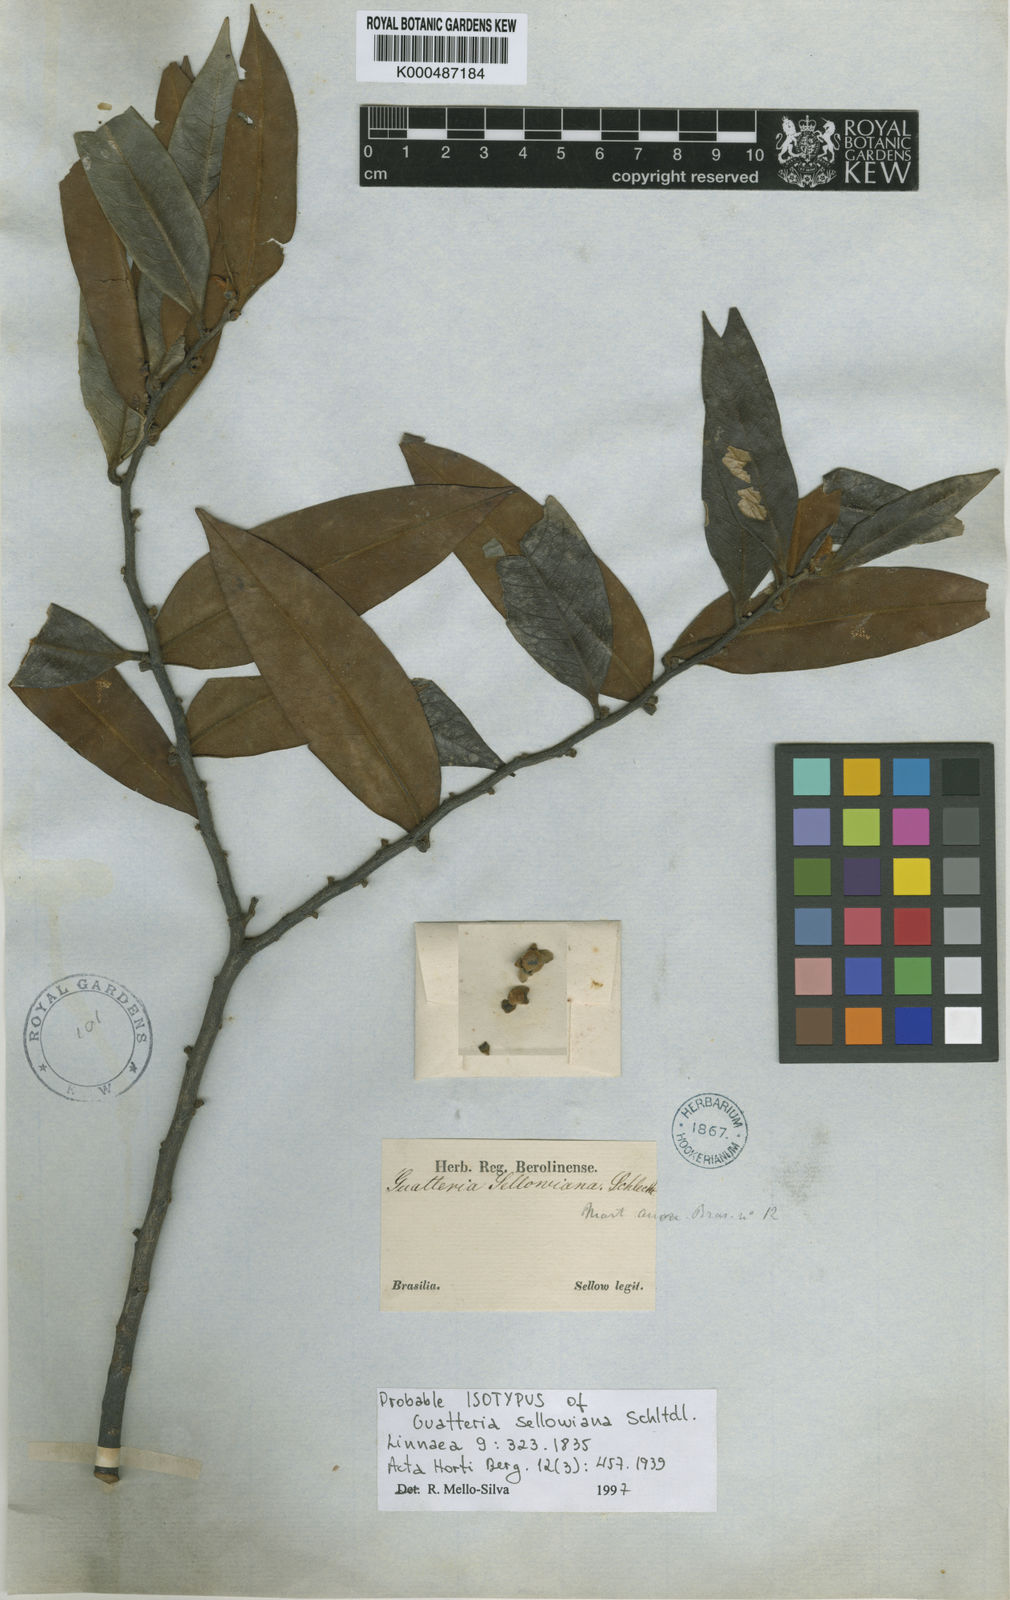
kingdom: Plantae
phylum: Tracheophyta
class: Magnoliopsida
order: Magnoliales
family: Annonaceae
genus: Guatteria
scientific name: Guatteria sellowiana
